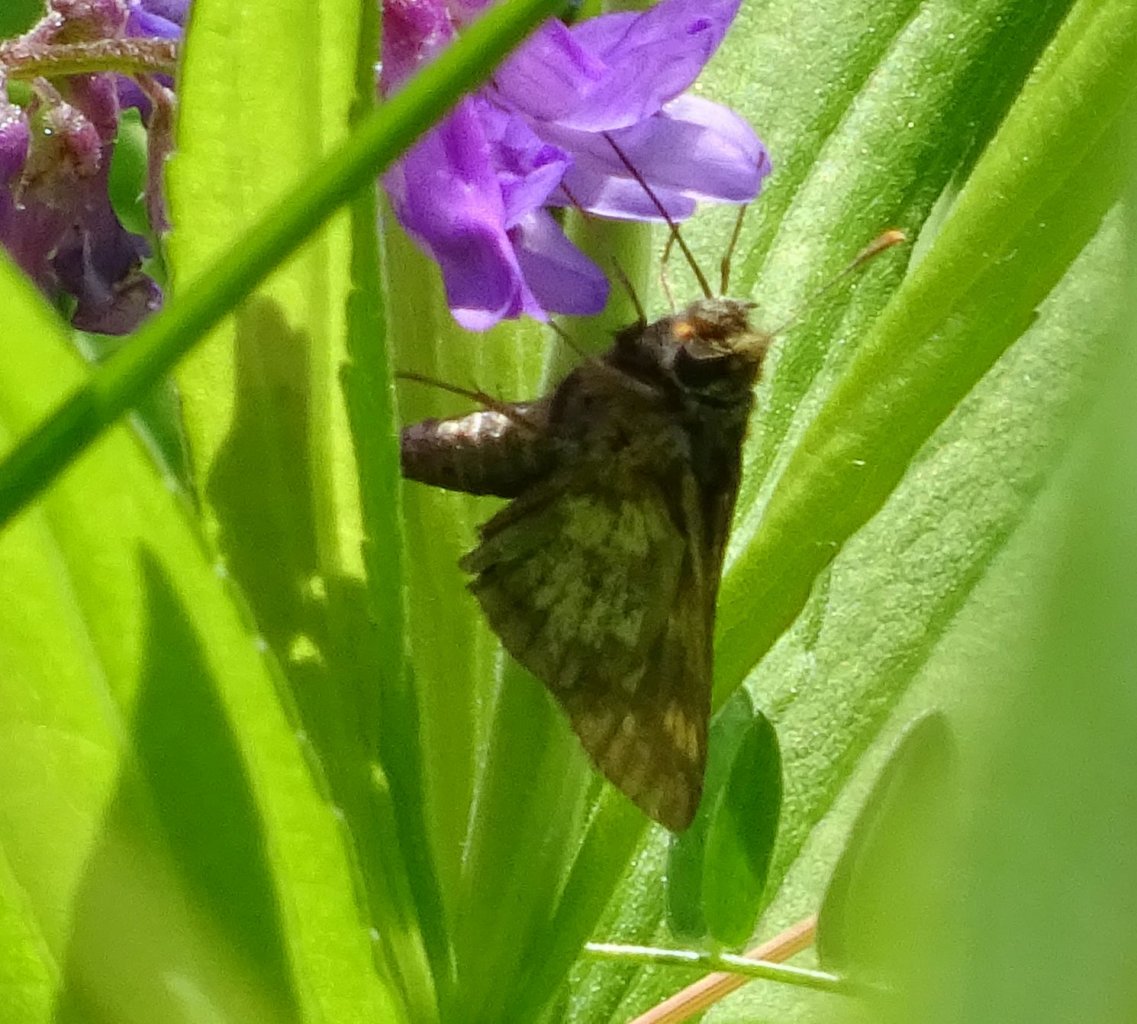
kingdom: Animalia
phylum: Arthropoda
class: Insecta
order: Lepidoptera
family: Hesperiidae
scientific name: Hesperiidae
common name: Skippers
